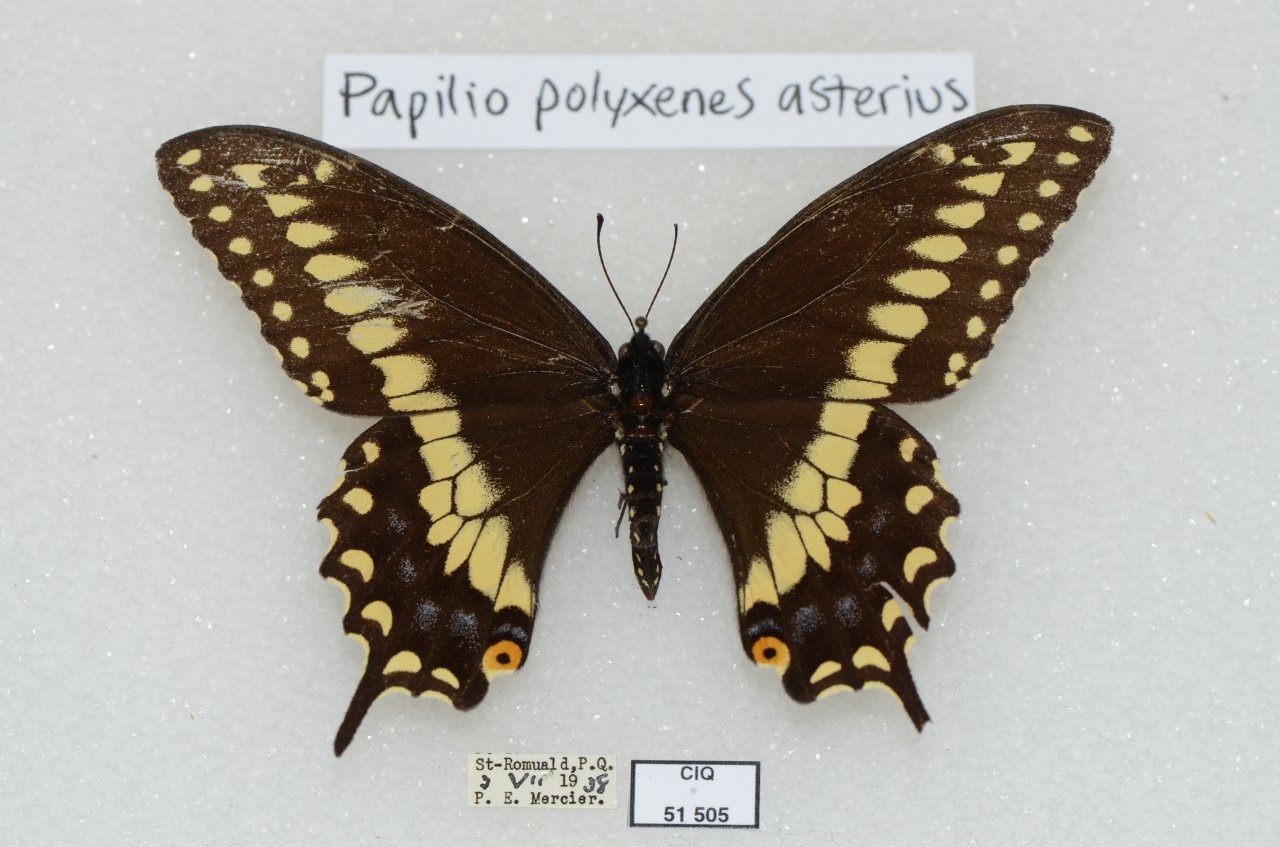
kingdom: Animalia
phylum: Arthropoda
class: Insecta
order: Lepidoptera
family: Papilionidae
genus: Papilio
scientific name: Papilio polyxenes
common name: Black Swallowtail
